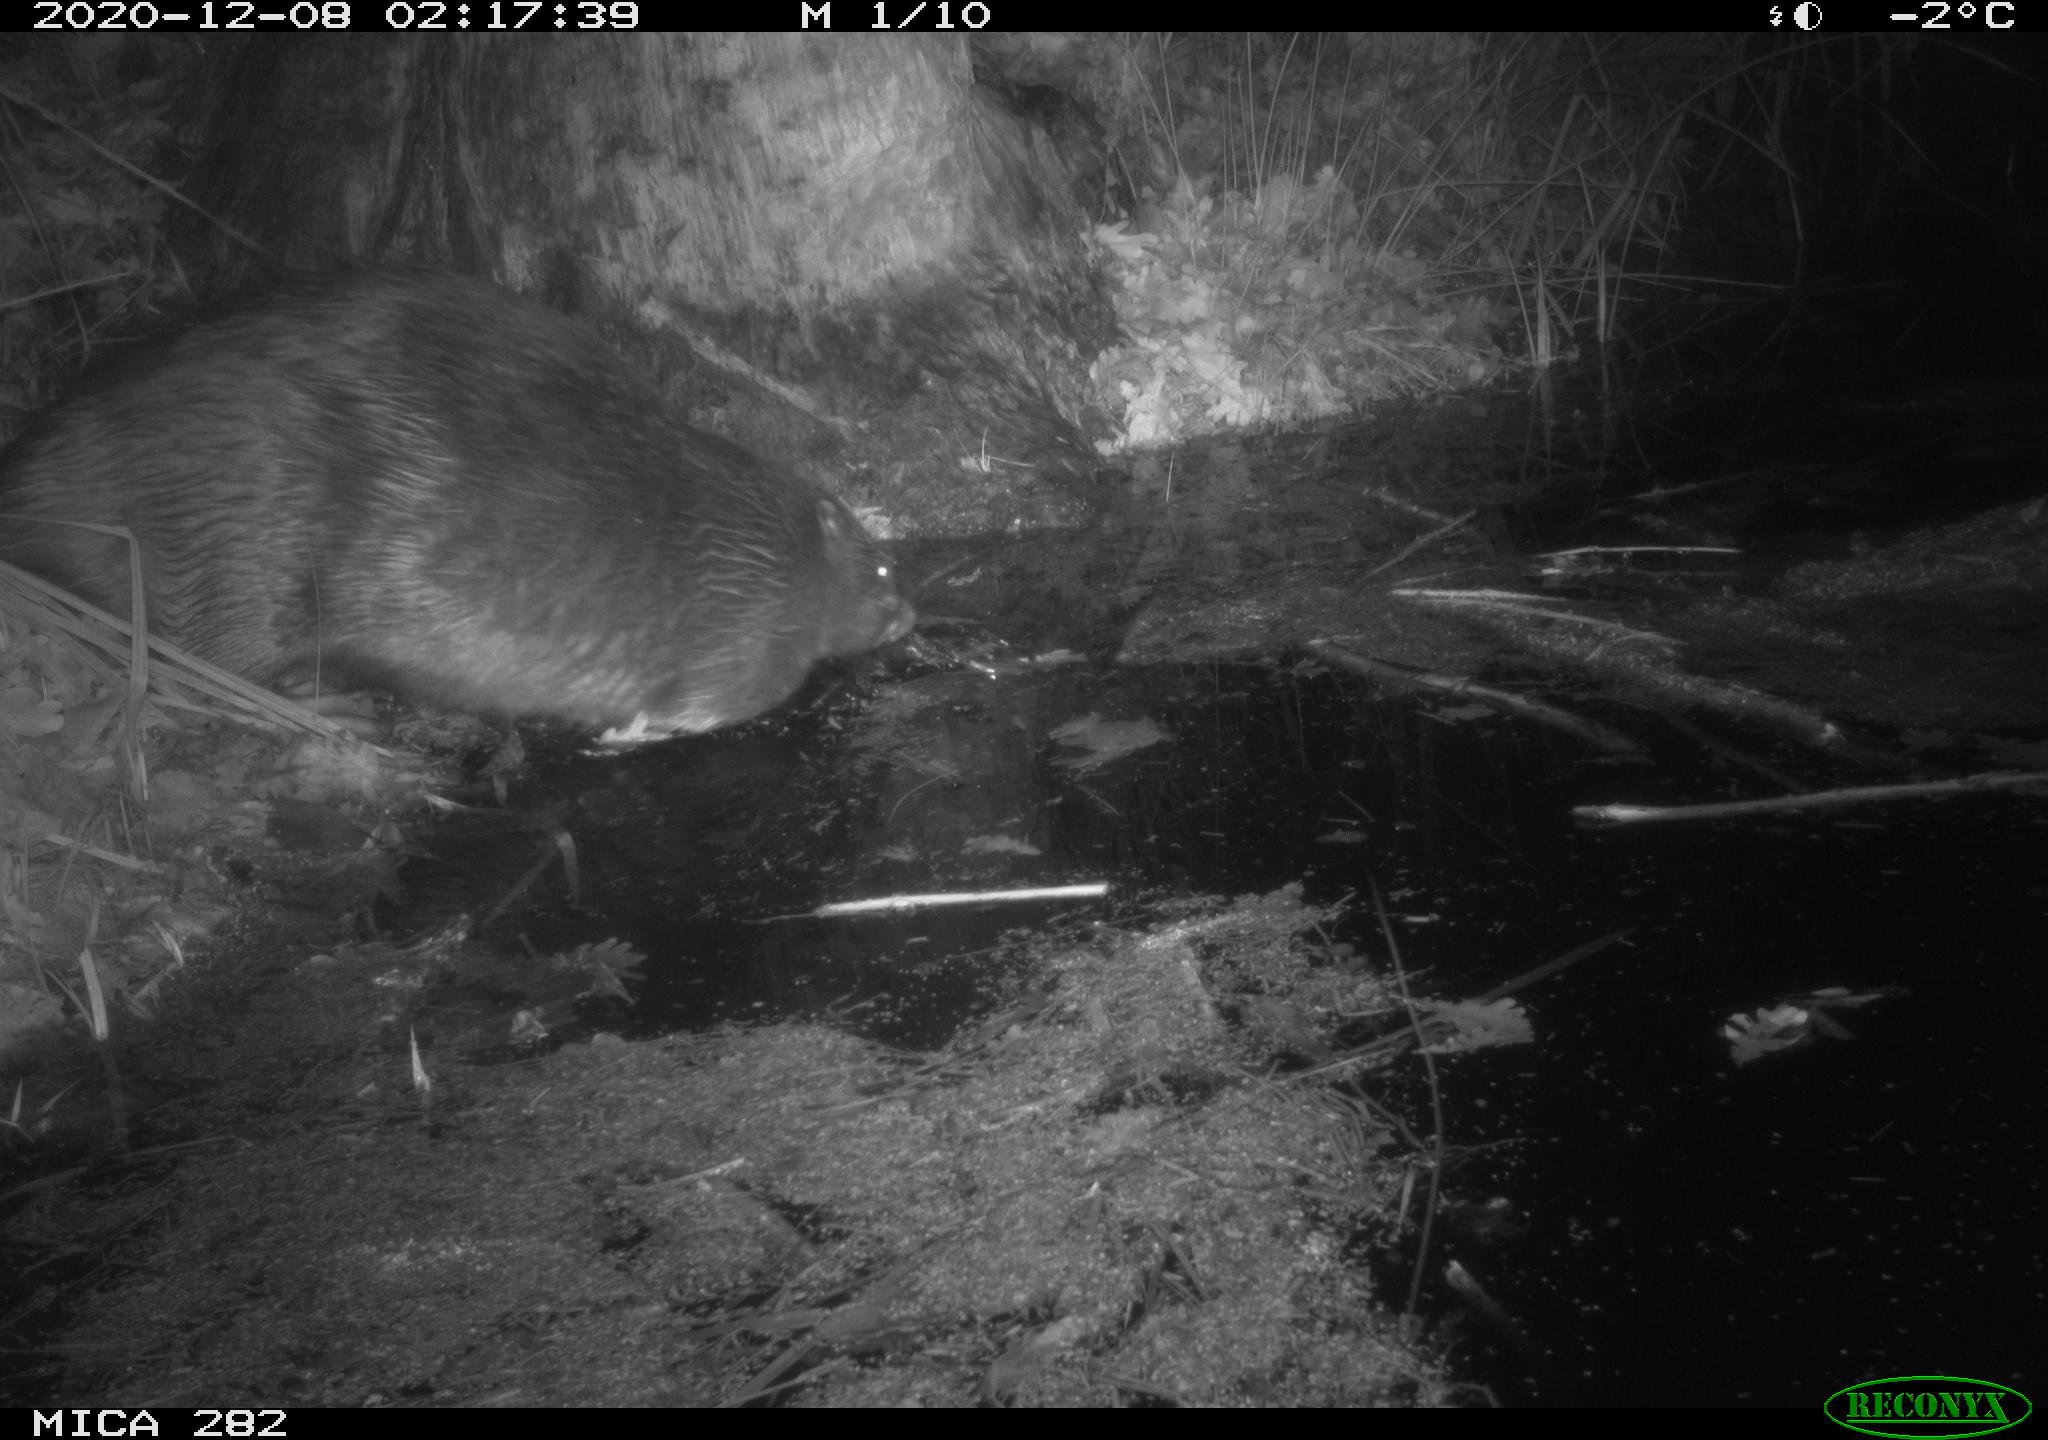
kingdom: Animalia
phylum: Chordata
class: Mammalia
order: Rodentia
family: Castoridae
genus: Castor
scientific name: Castor fiber
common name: Eurasian beaver
